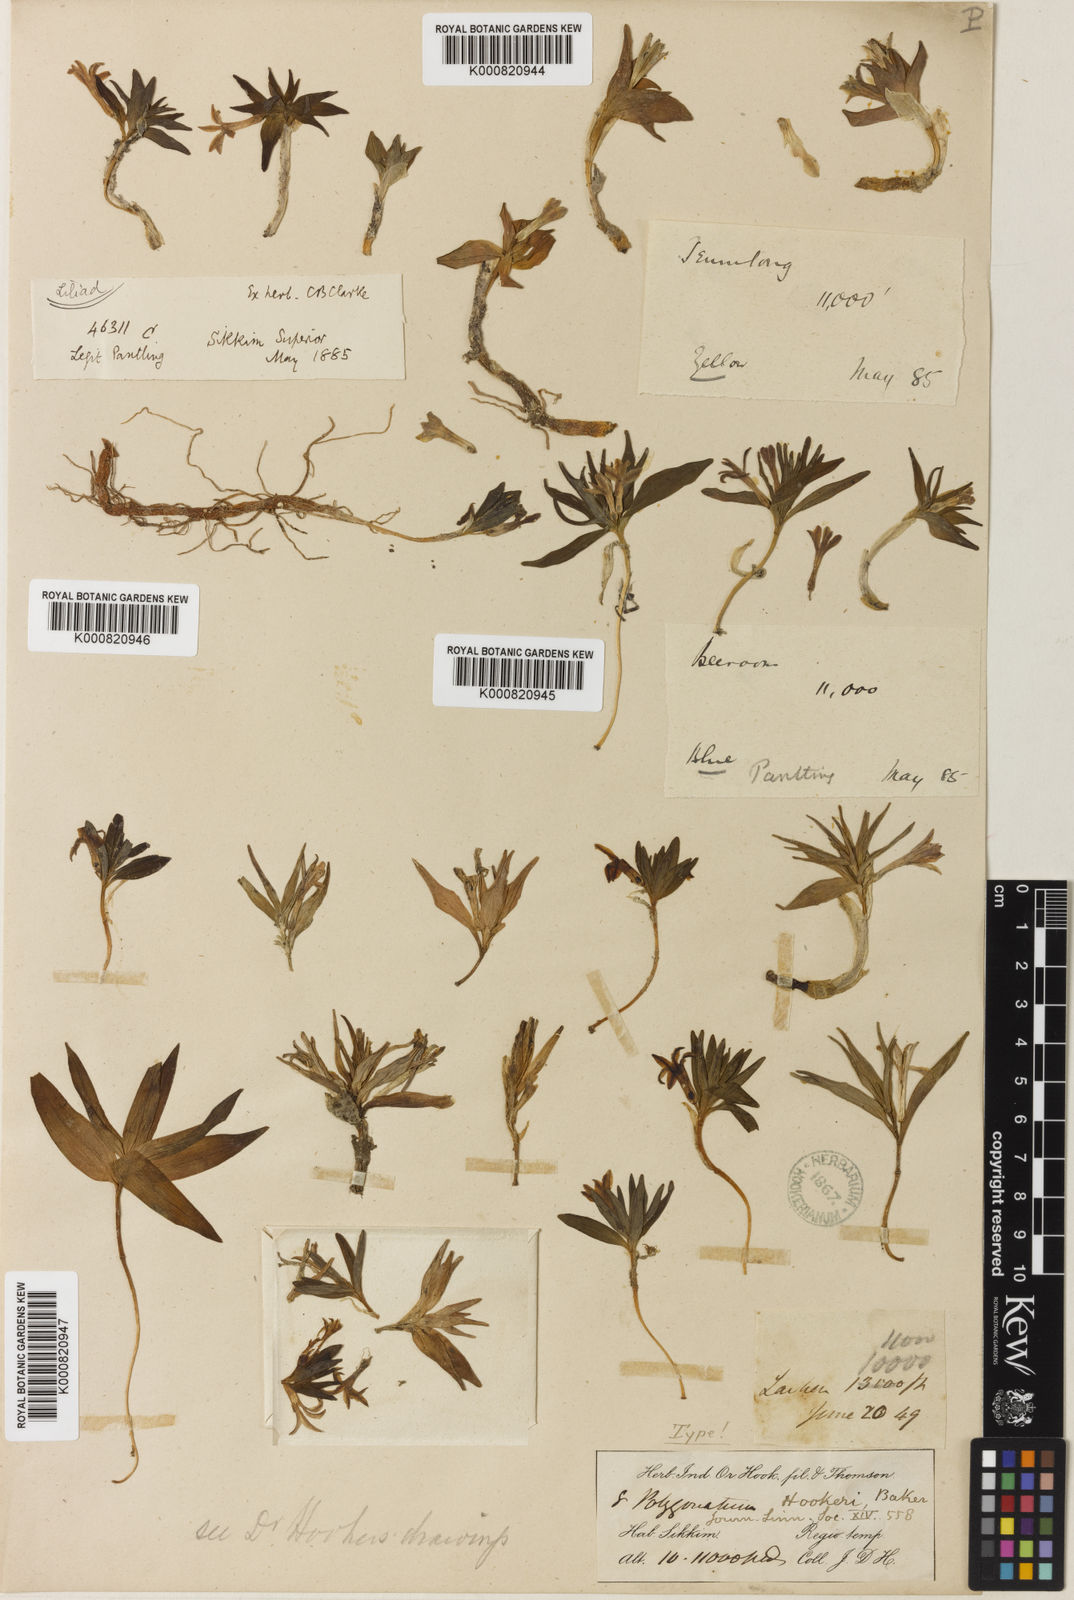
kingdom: Plantae
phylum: Tracheophyta
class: Liliopsida
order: Asparagales
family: Asparagaceae
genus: Polygonatum
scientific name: Polygonatum hookeri
